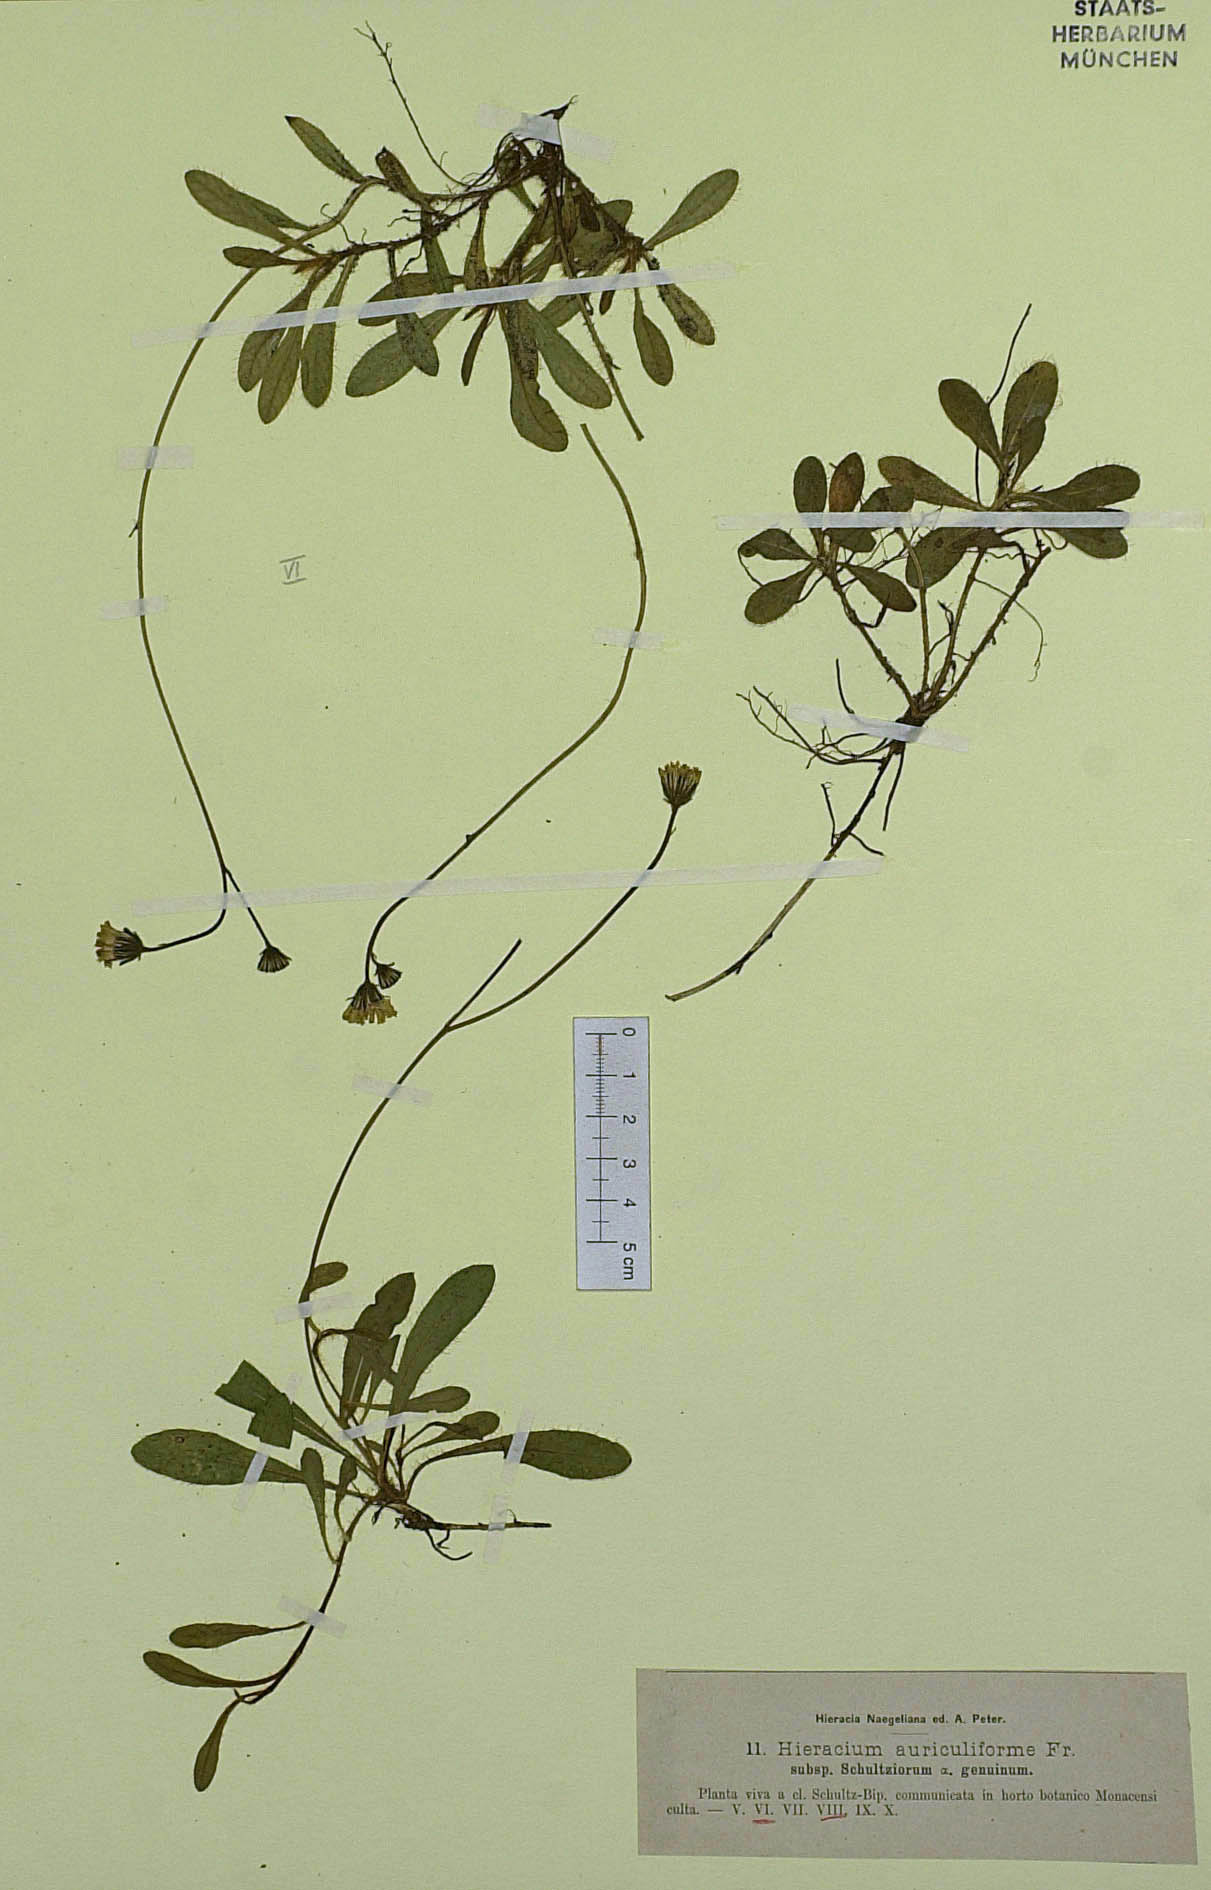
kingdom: Plantae
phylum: Tracheophyta
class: Magnoliopsida
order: Asterales
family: Asteraceae
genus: Pilosella
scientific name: Pilosella schultesii
